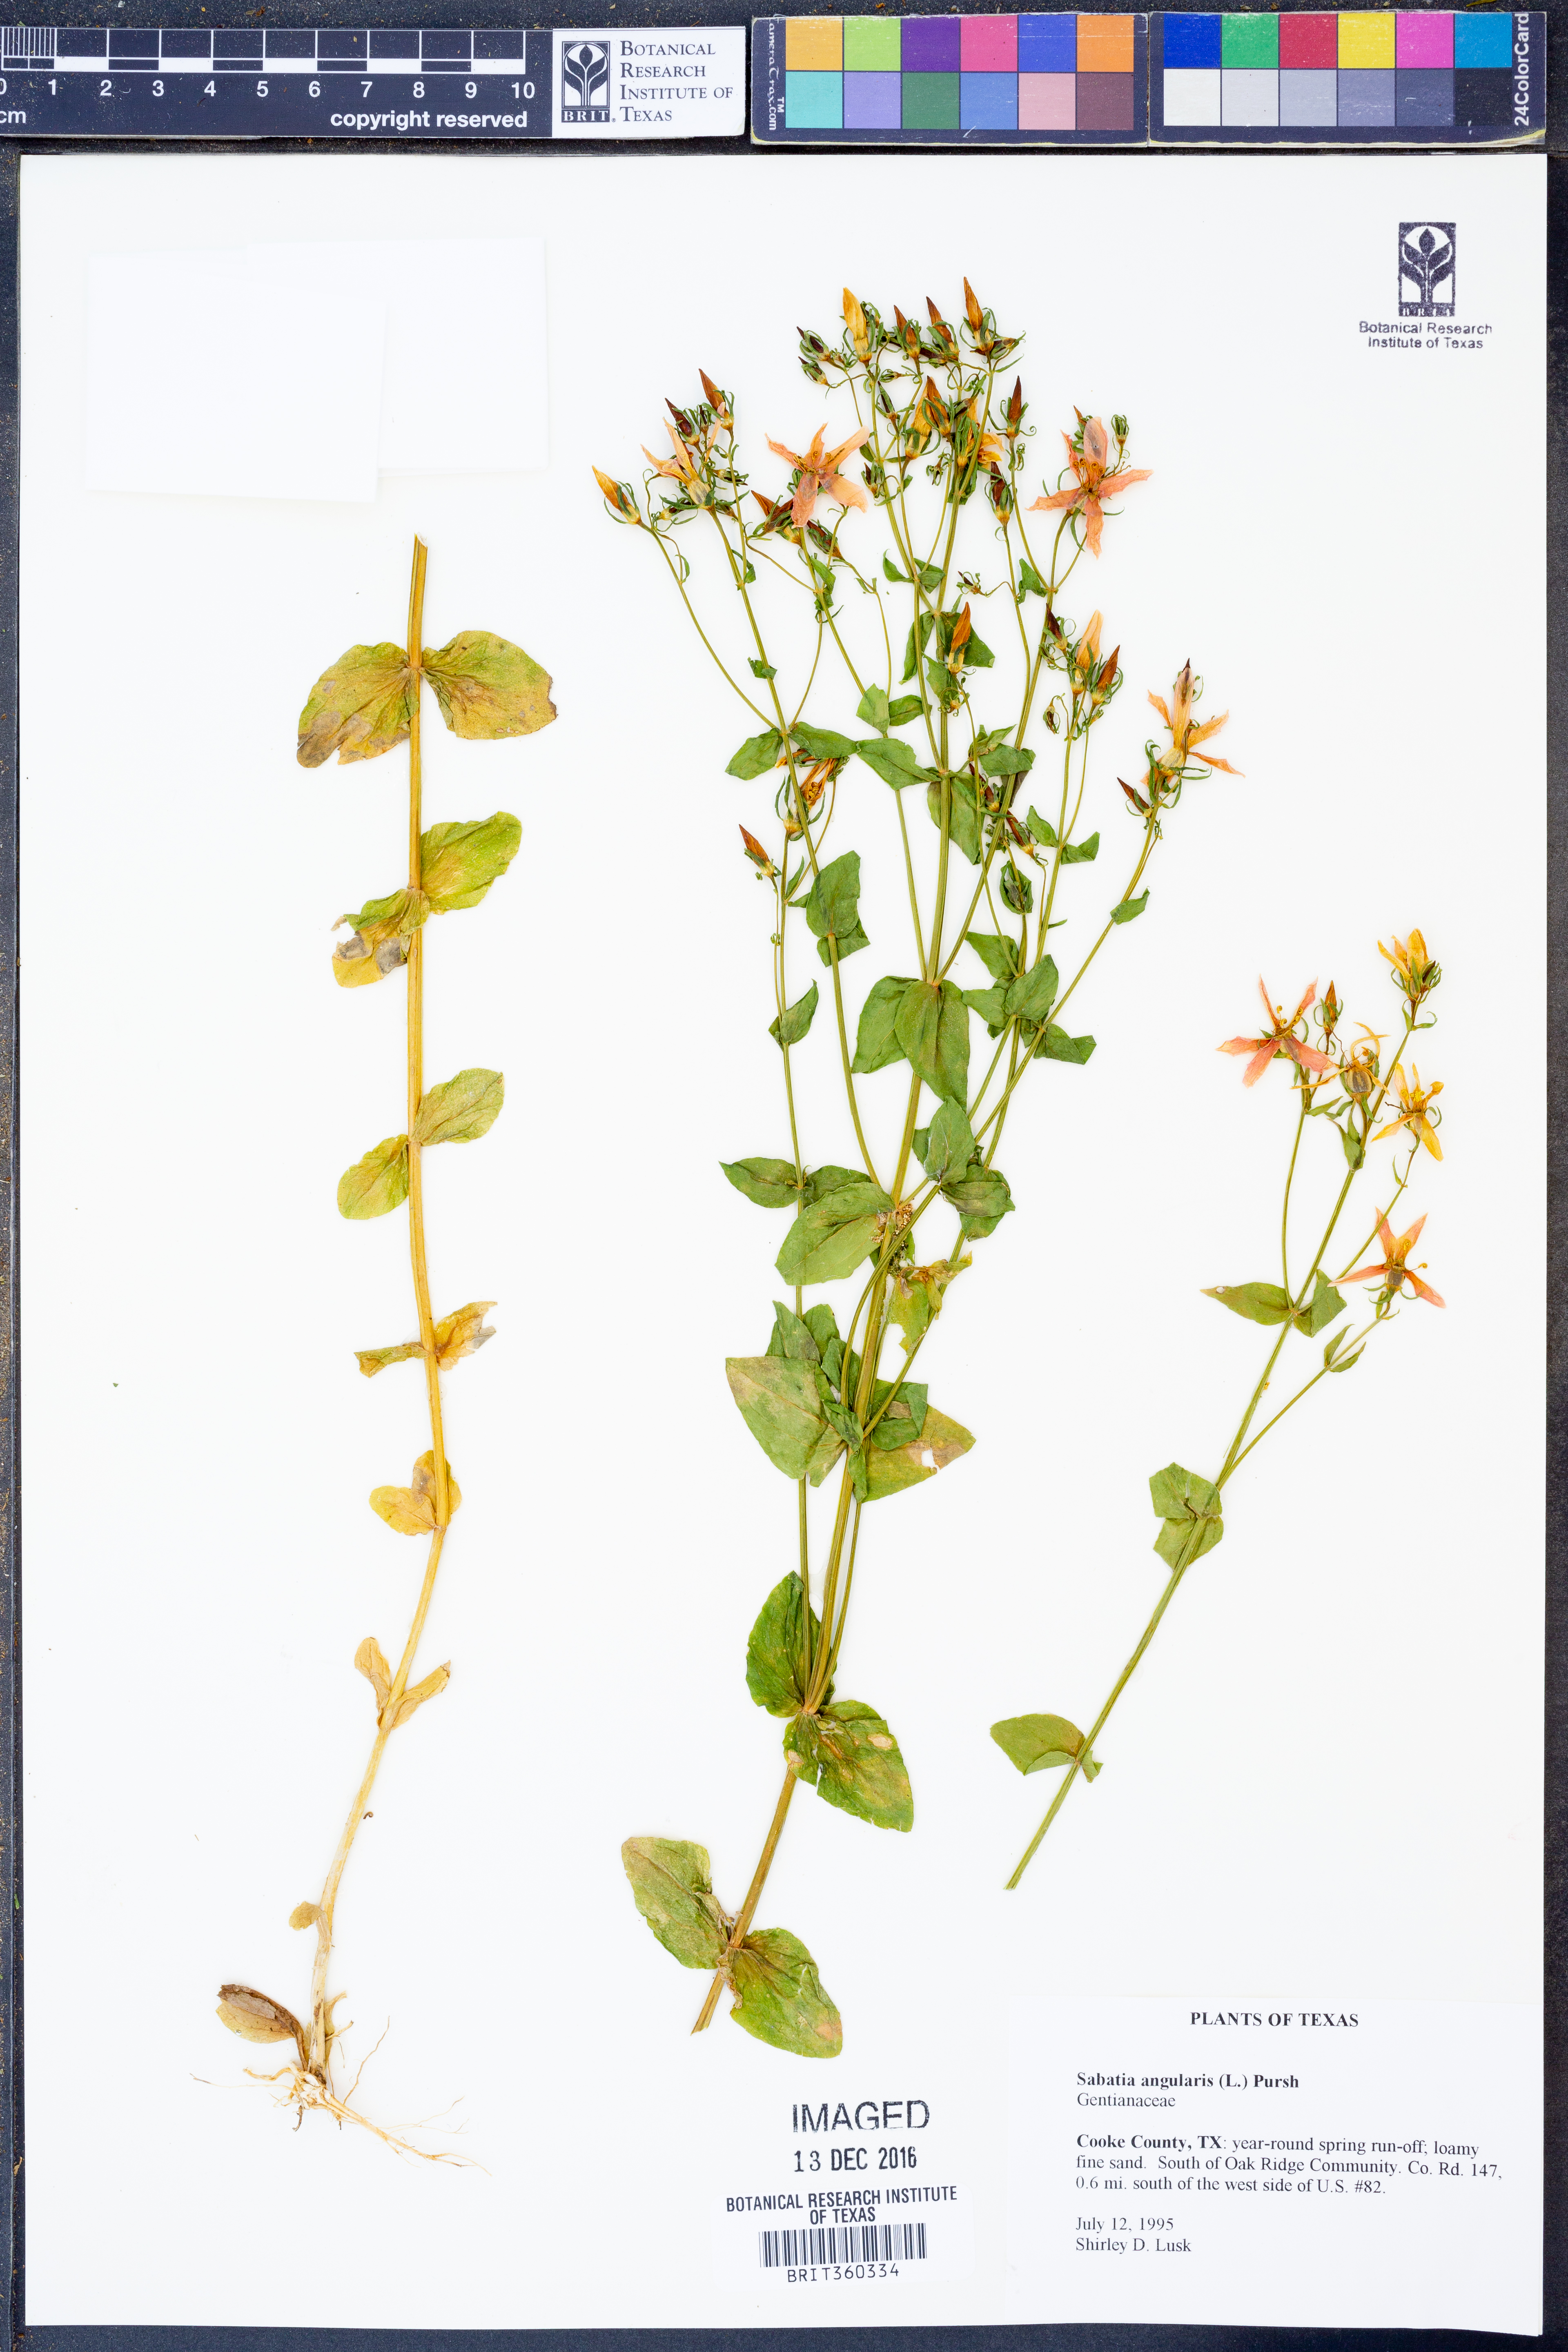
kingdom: Plantae
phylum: Tracheophyta
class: Magnoliopsida
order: Gentianales
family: Gentianaceae
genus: Sabatia
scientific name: Sabatia angularis
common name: Rose-pink
